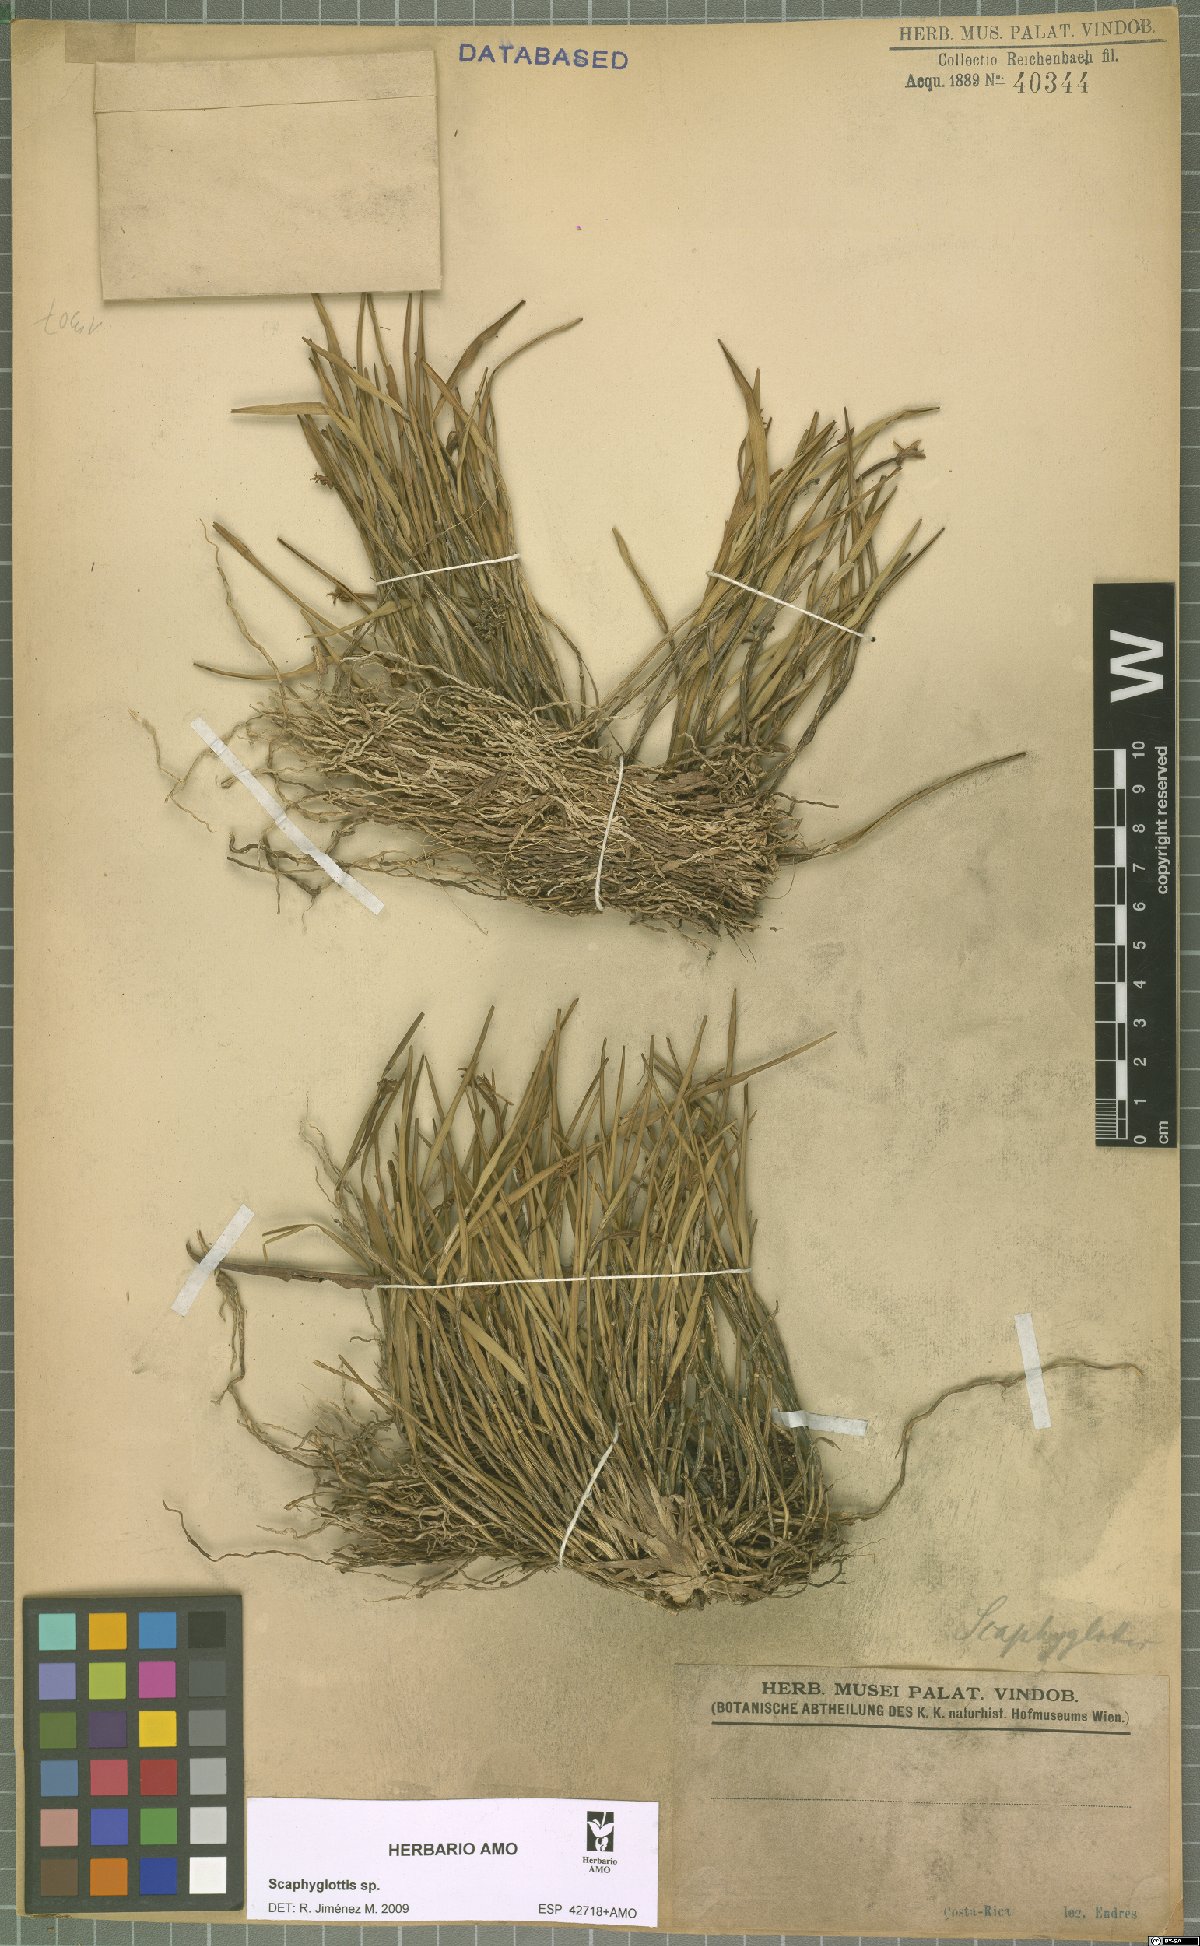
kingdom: Plantae
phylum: Tracheophyta
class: Liliopsida
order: Asparagales
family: Orchidaceae
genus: Scaphyglottis
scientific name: Scaphyglottis
